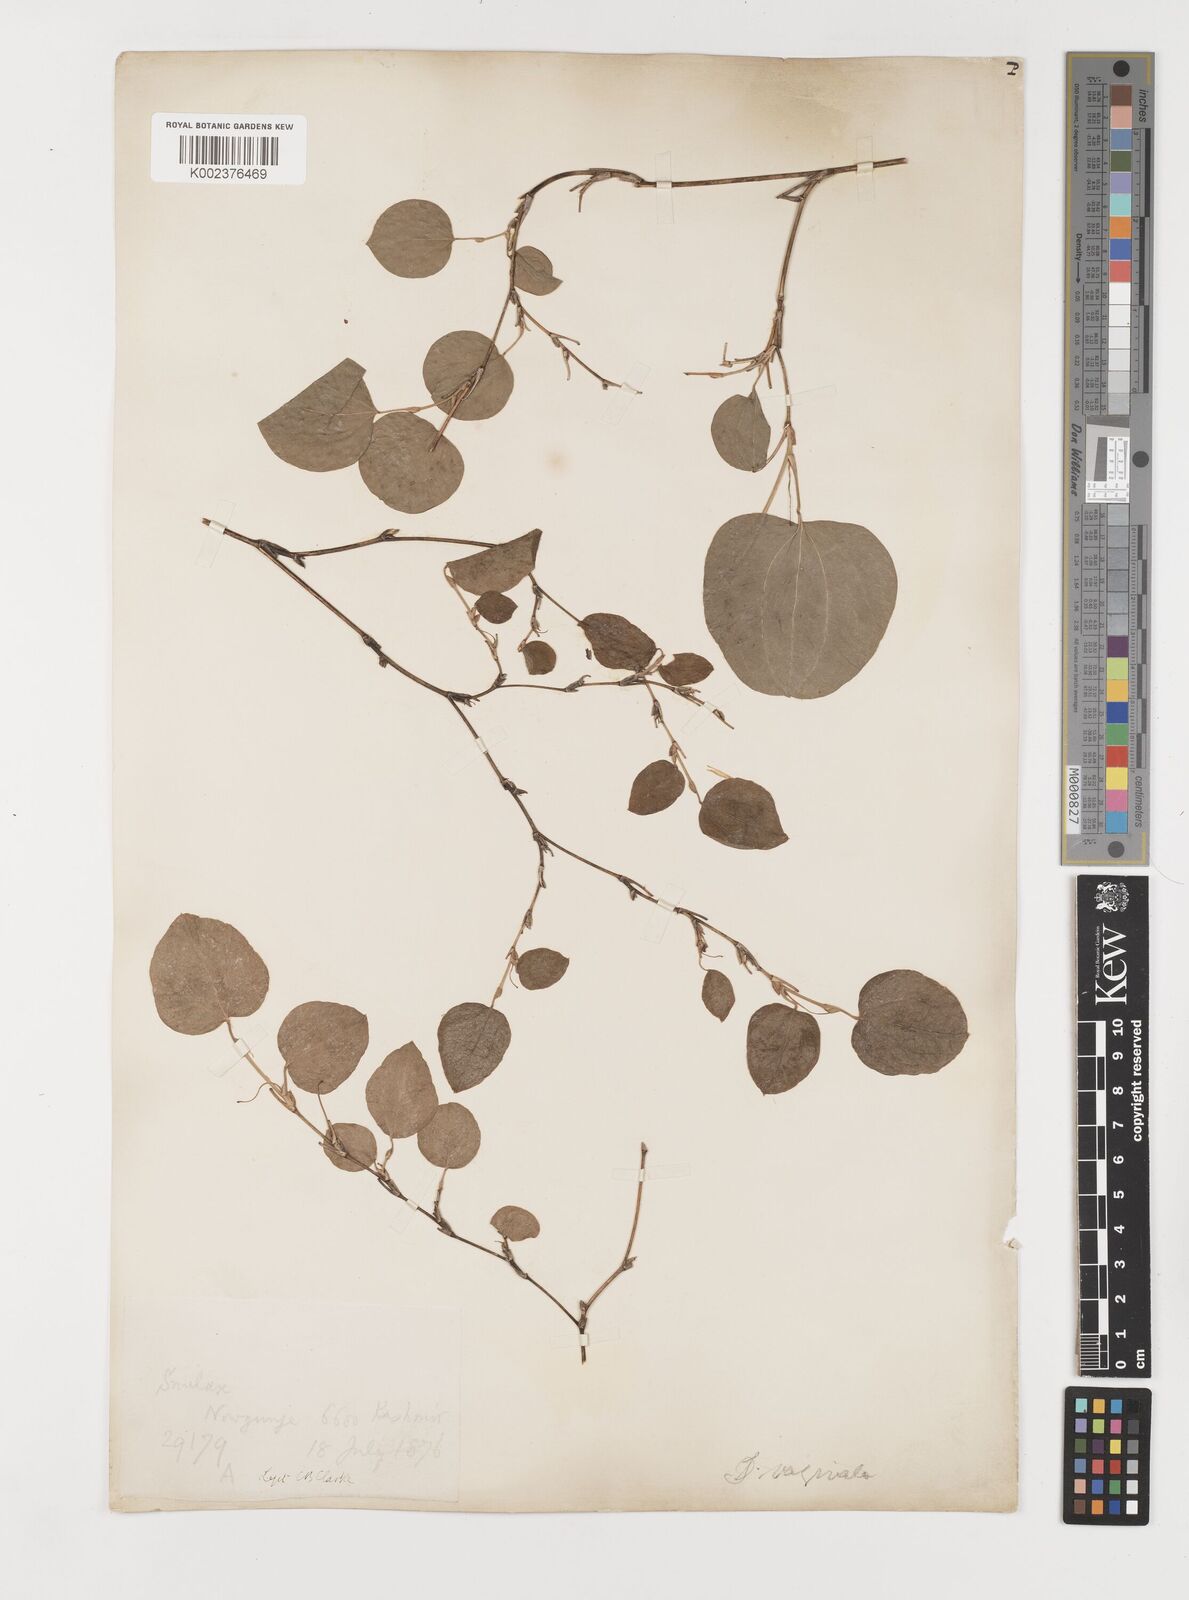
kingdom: Plantae
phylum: Tracheophyta
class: Liliopsida
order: Liliales
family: Smilacaceae
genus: Smilax
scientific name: Smilax vaginata
